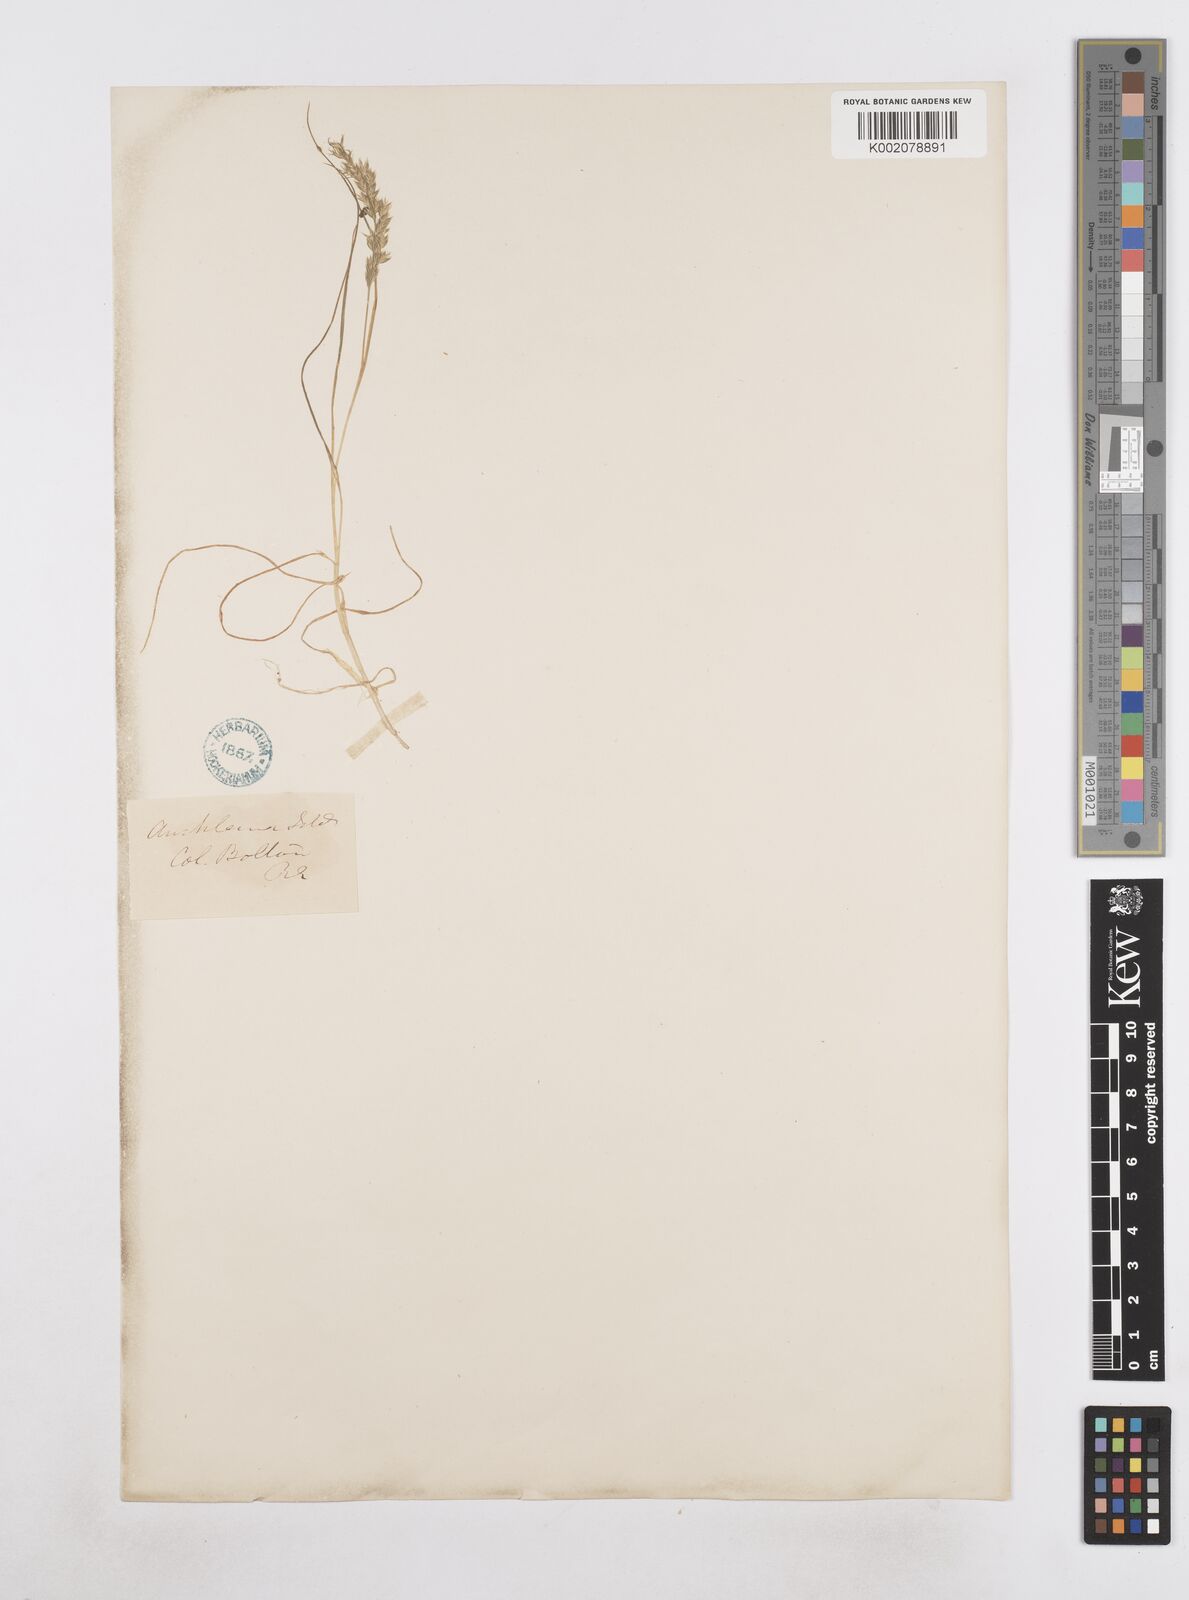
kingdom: Plantae
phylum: Tracheophyta
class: Liliopsida
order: Poales
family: Poaceae
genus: Poa
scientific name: Poa ramosissima
